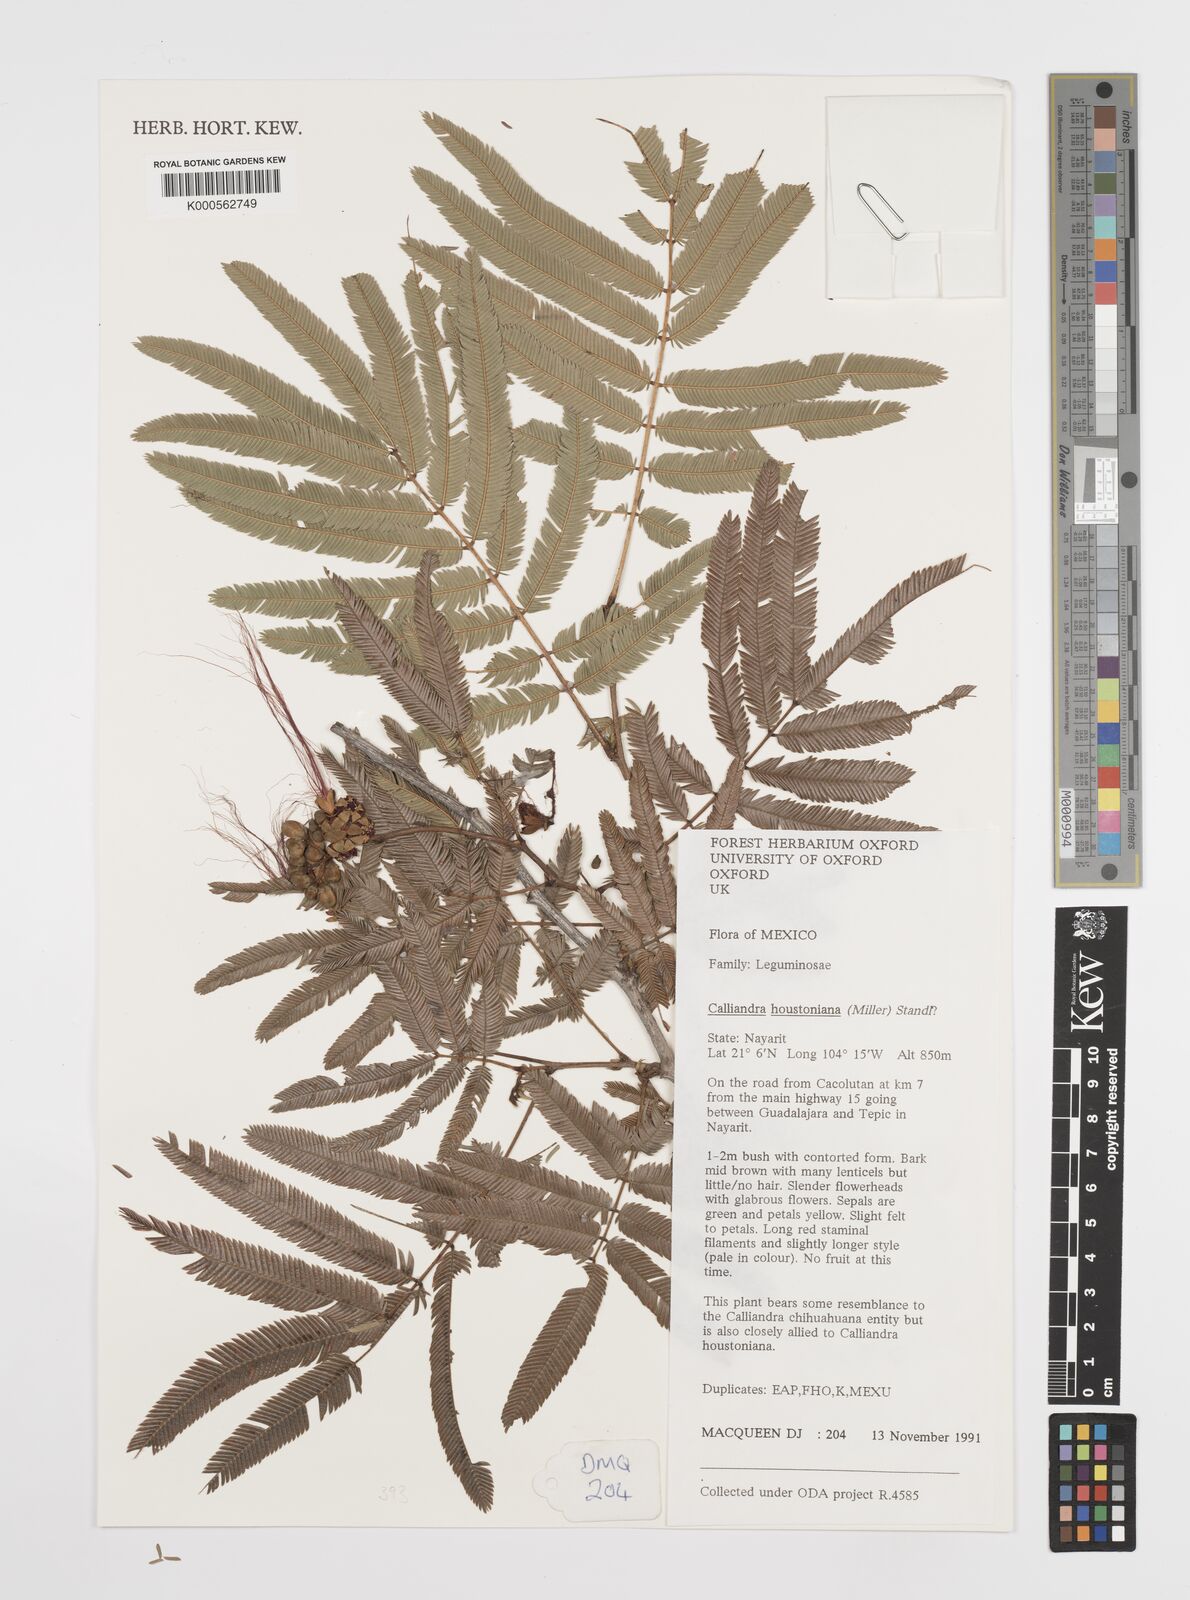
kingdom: Plantae
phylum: Tracheophyta
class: Magnoliopsida
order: Fabales
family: Fabaceae
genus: Calliandra
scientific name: Calliandra houstoniana
